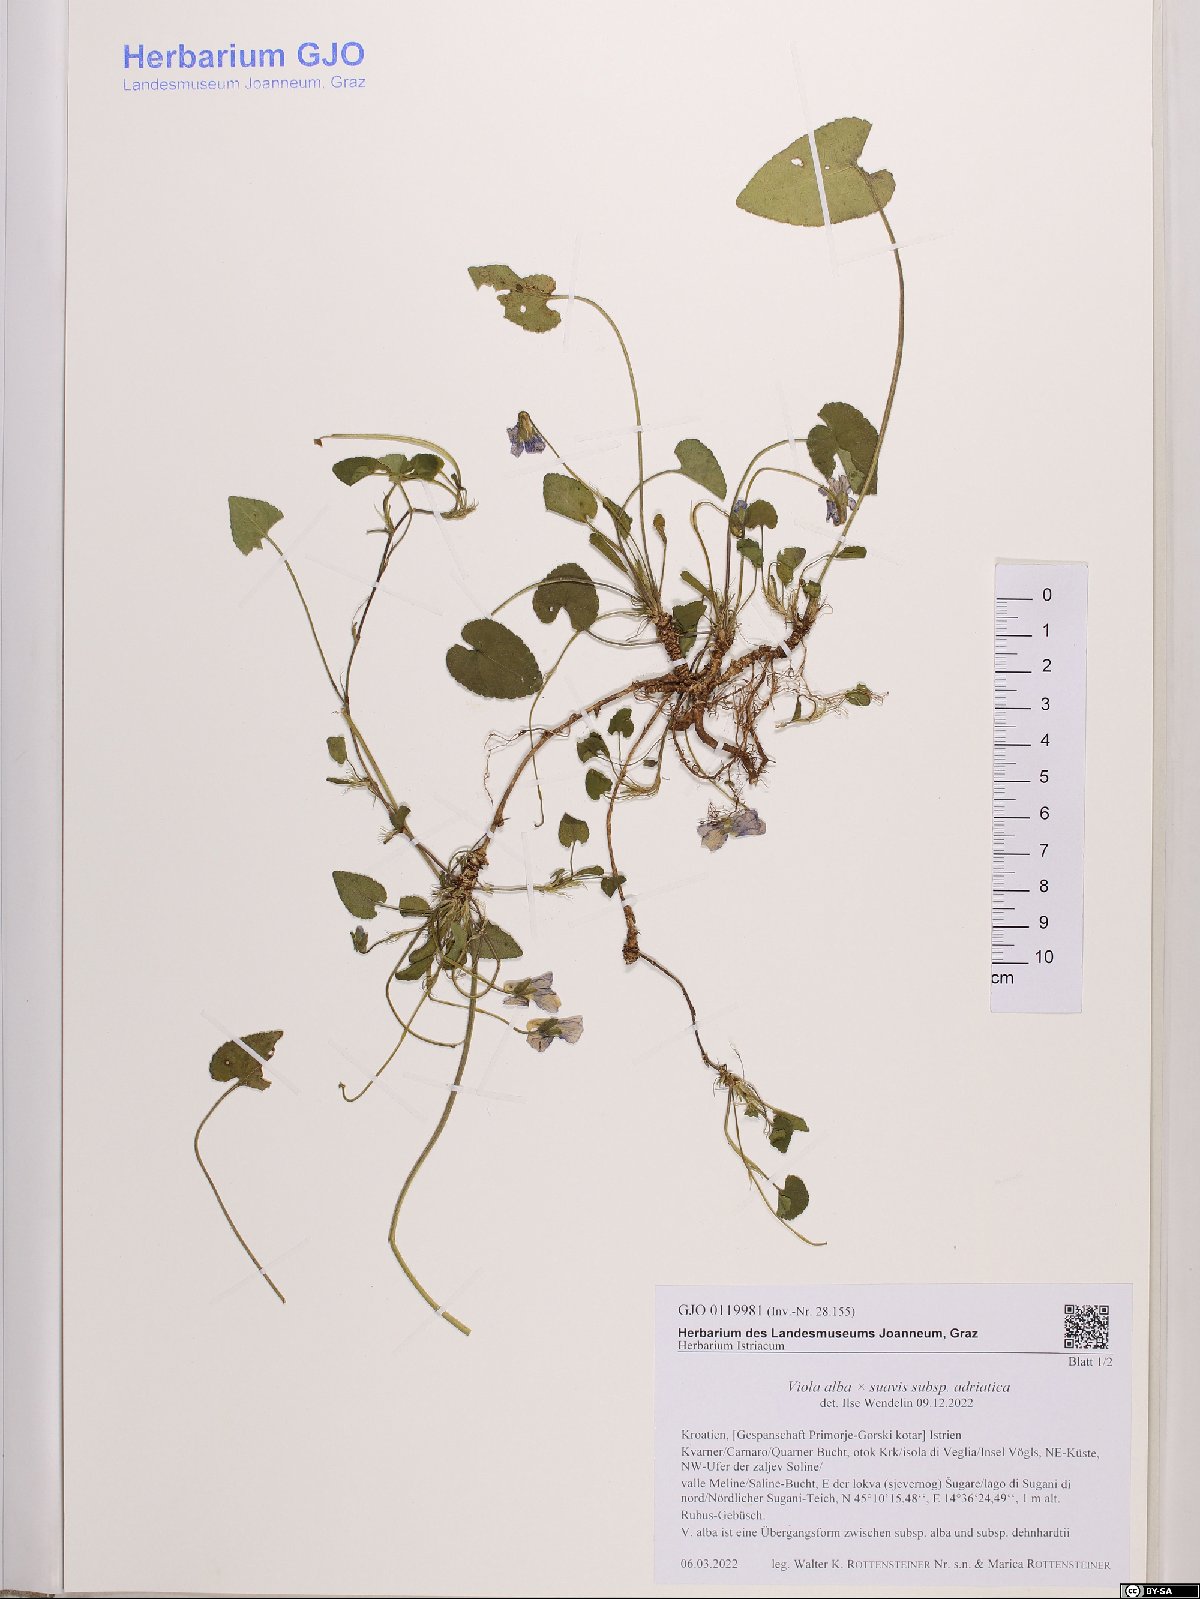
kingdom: Plantae
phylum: Tracheophyta
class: Magnoliopsida
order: Malpighiales
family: Violaceae
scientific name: Violaceae
